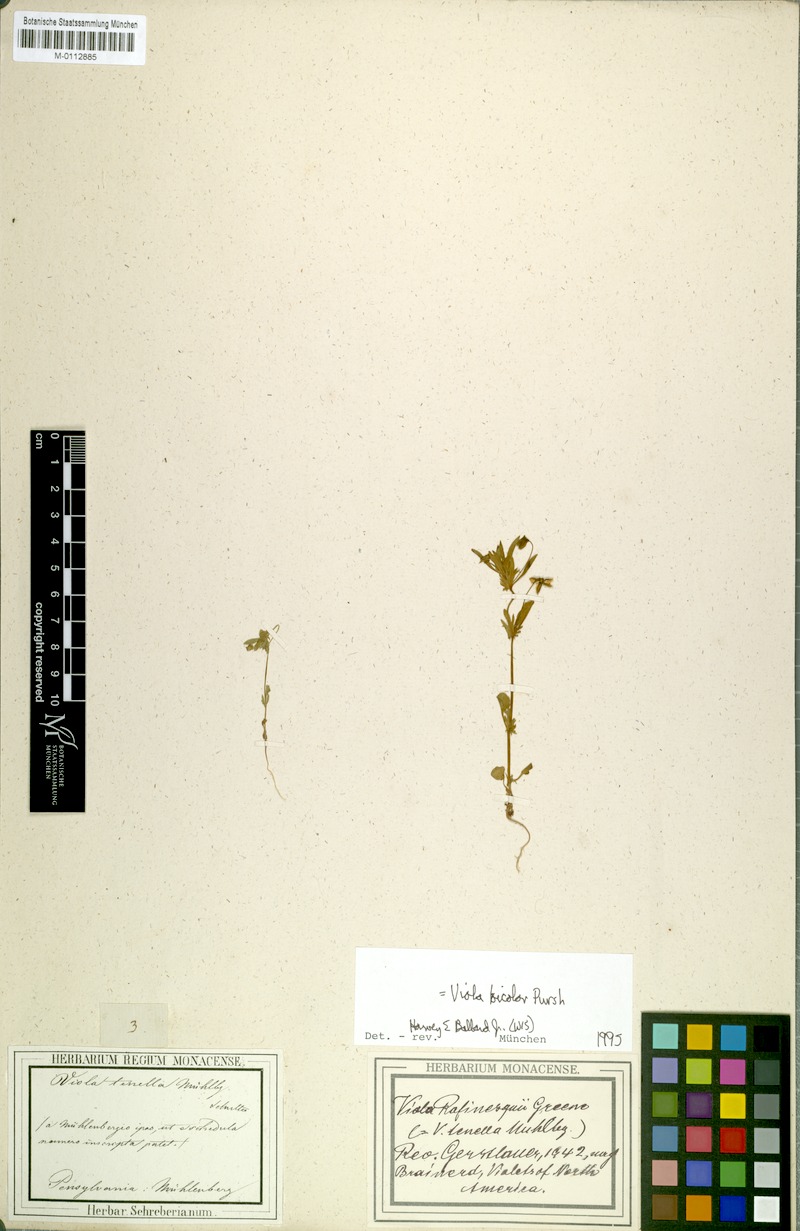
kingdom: Plantae
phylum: Tracheophyta
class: Magnoliopsida
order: Malpighiales
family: Violaceae
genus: Viola
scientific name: Viola rafinesquei
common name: American field pansy
